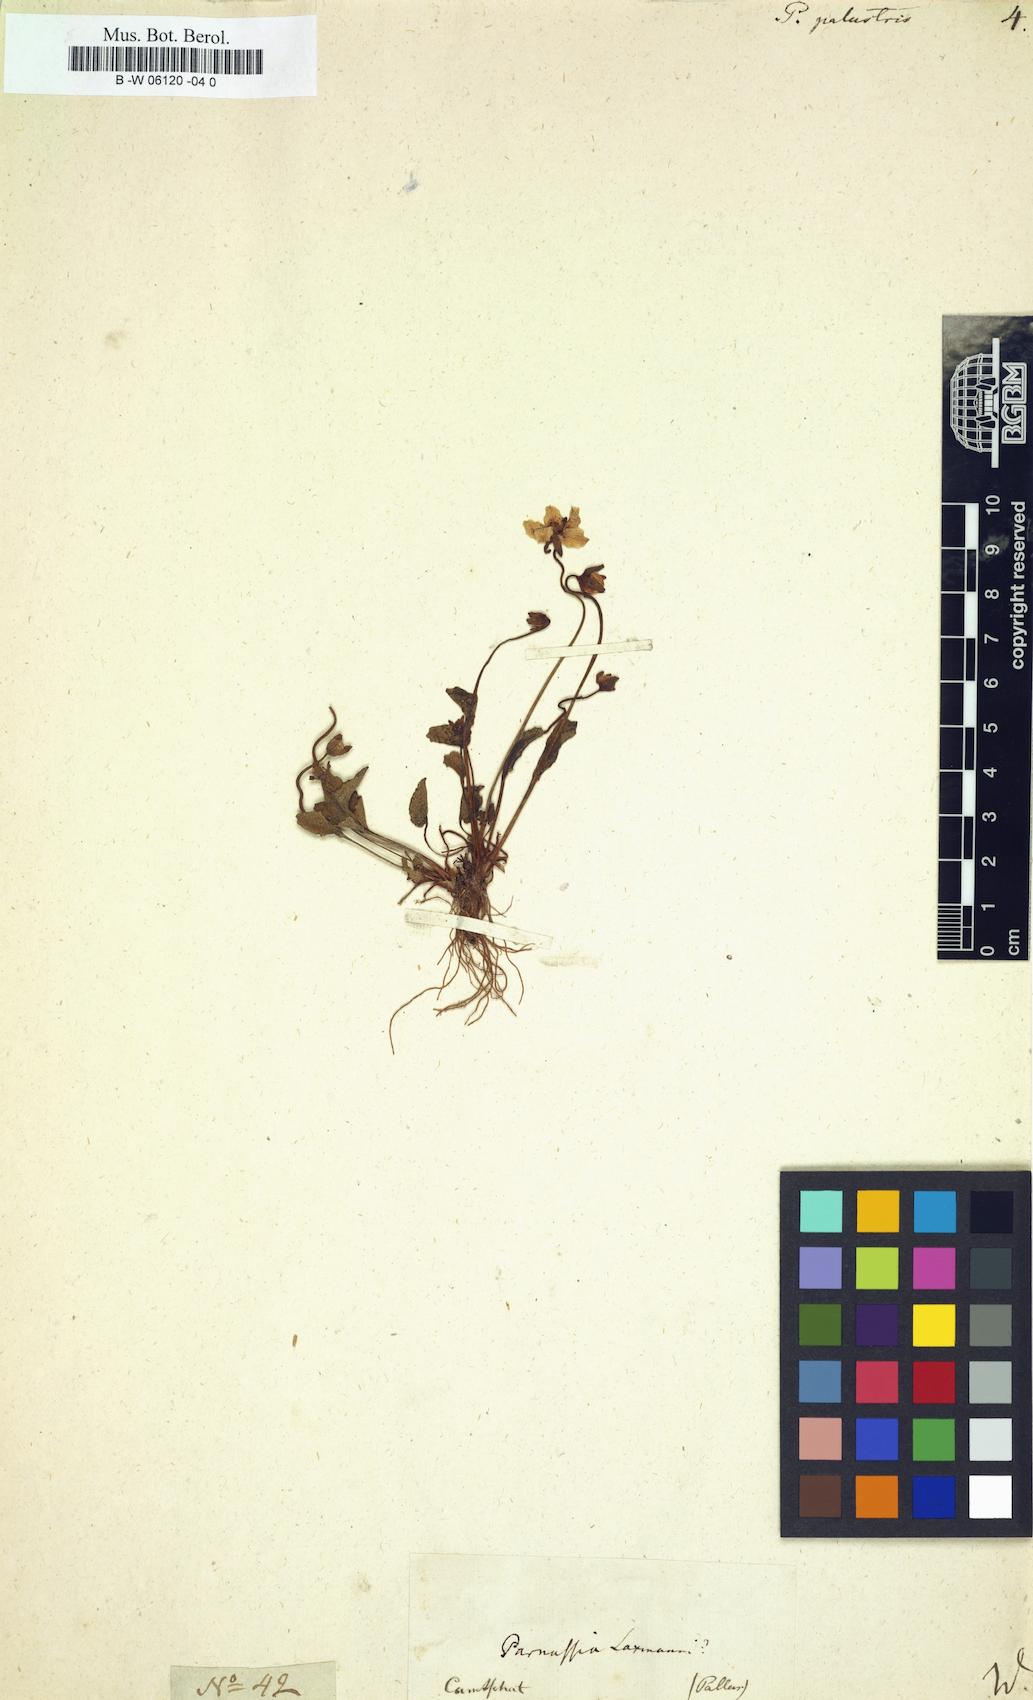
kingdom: Plantae
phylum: Tracheophyta
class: Magnoliopsida
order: Celastrales
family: Parnassiaceae
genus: Parnassia
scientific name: Parnassia palustris
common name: Grass-of-parnassus
